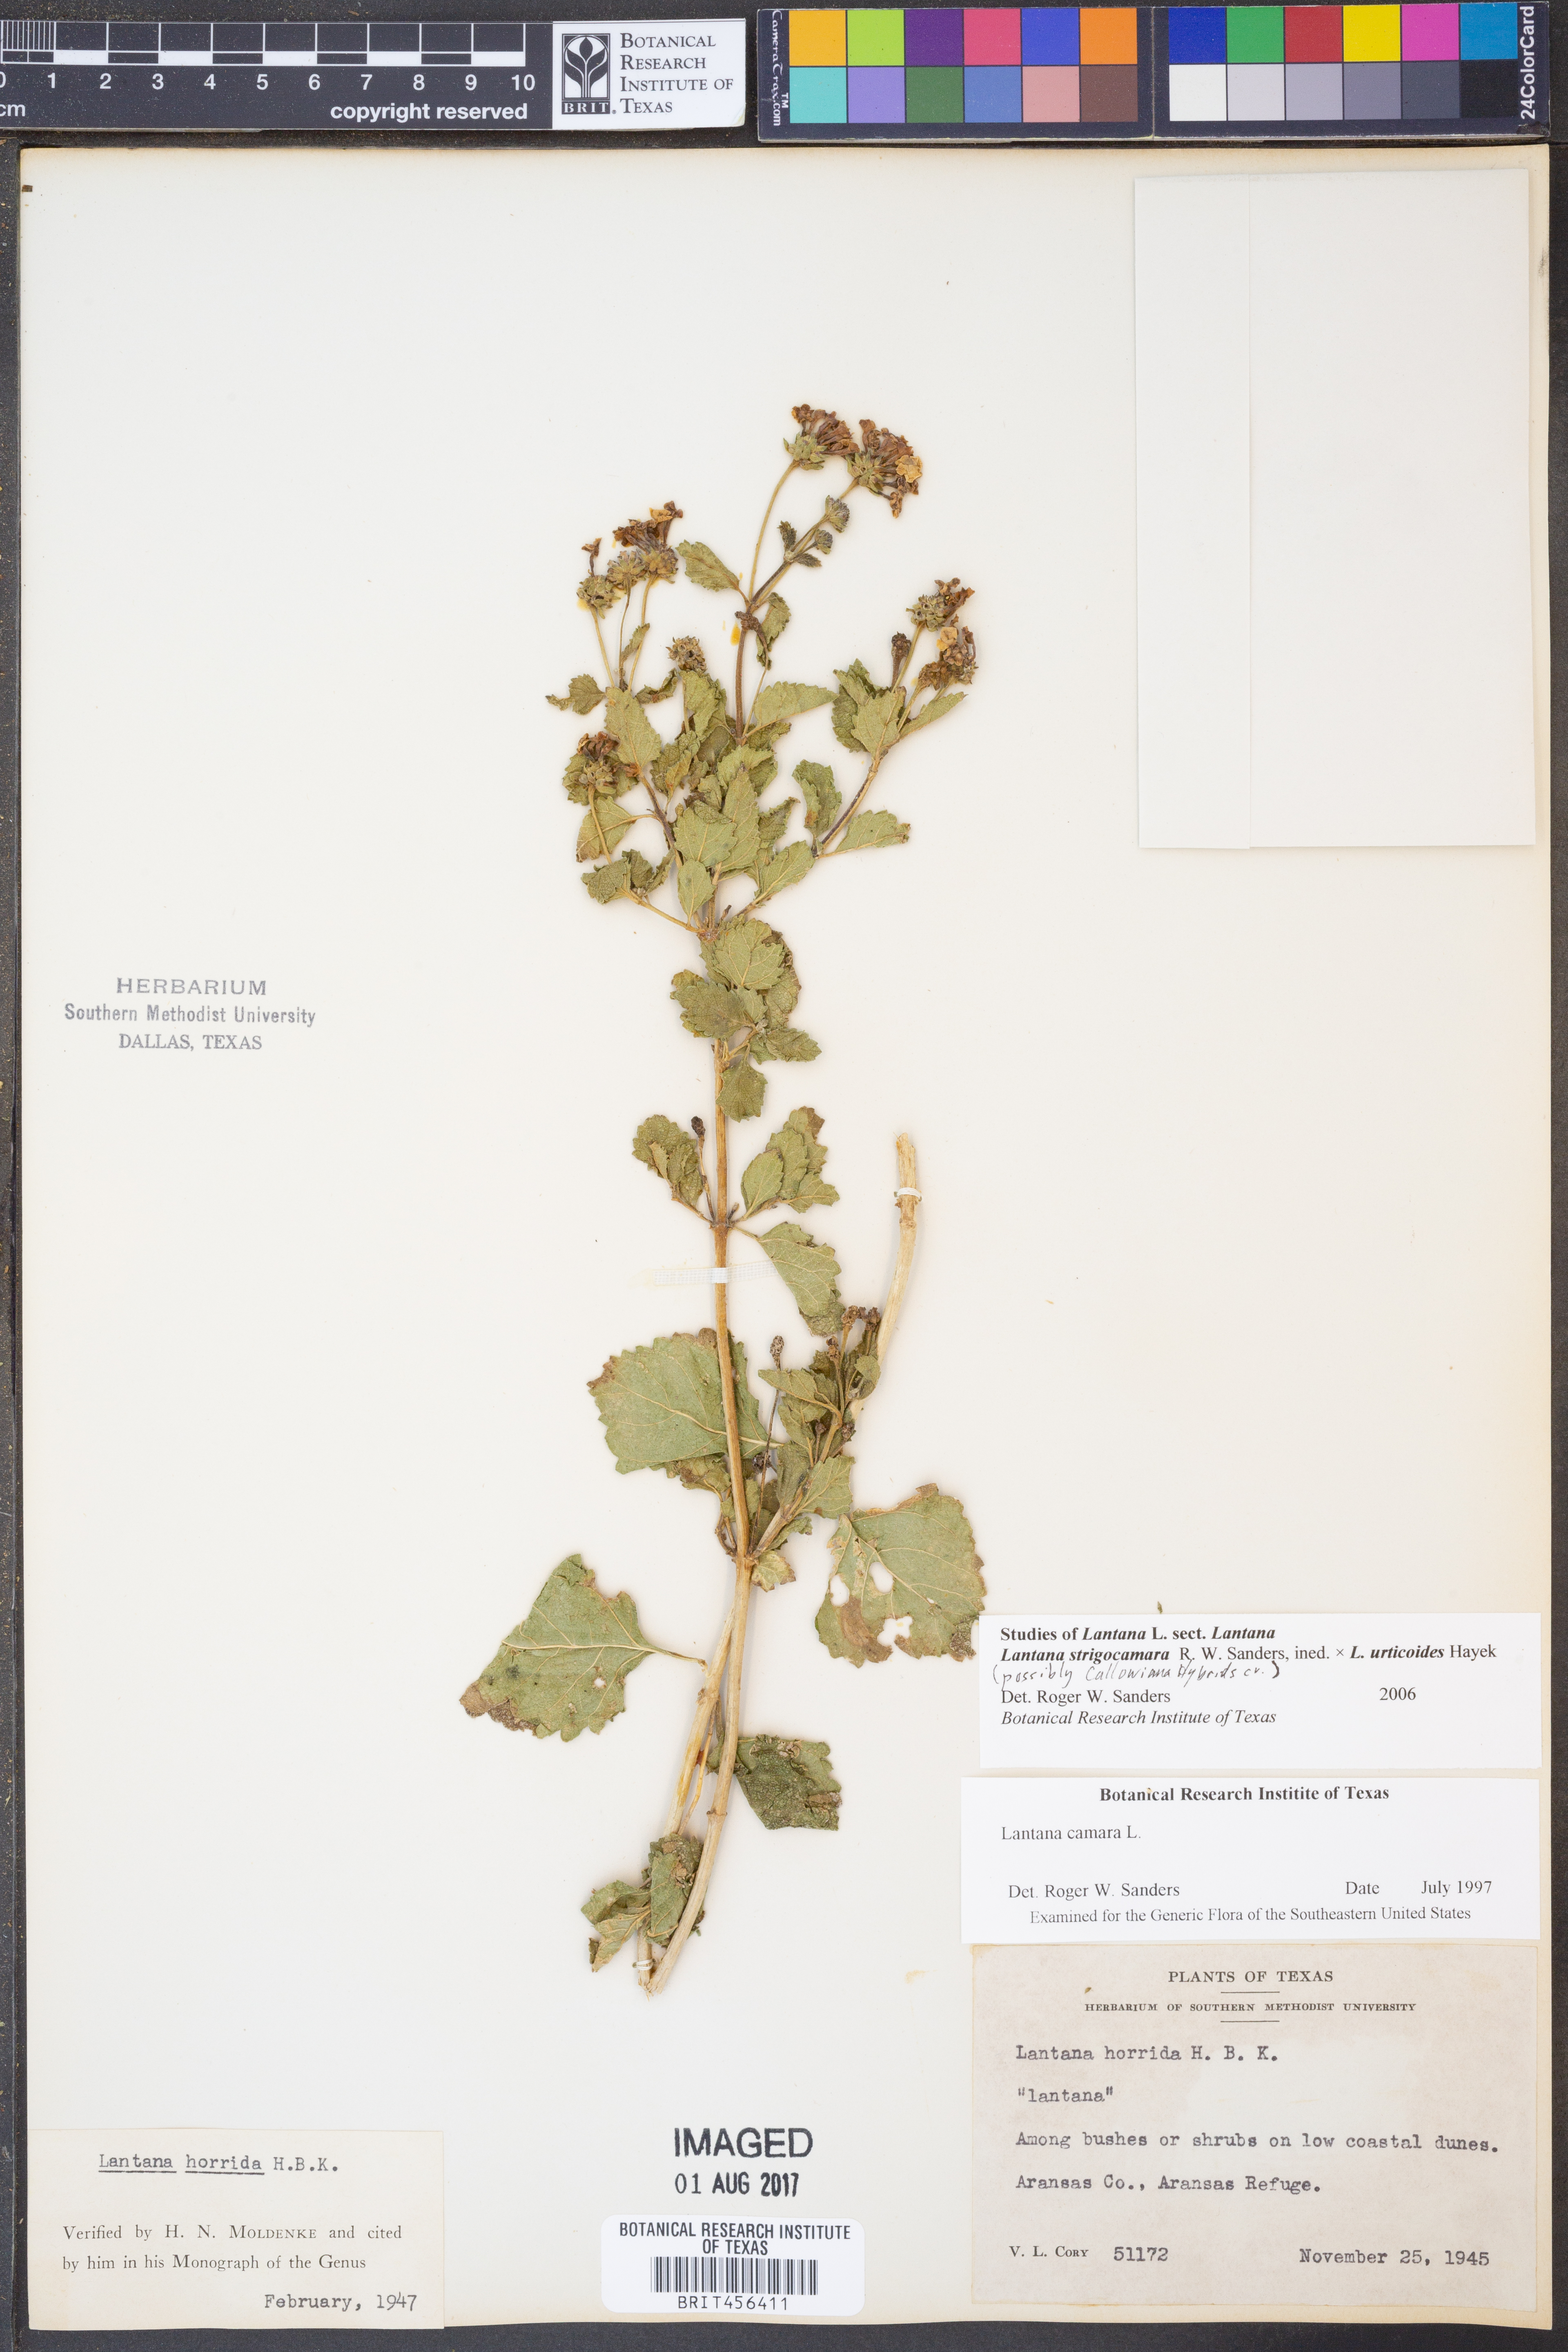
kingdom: Plantae
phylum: Tracheophyta
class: Magnoliopsida
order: Lamiales
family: Verbenaceae
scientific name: Verbenaceae
